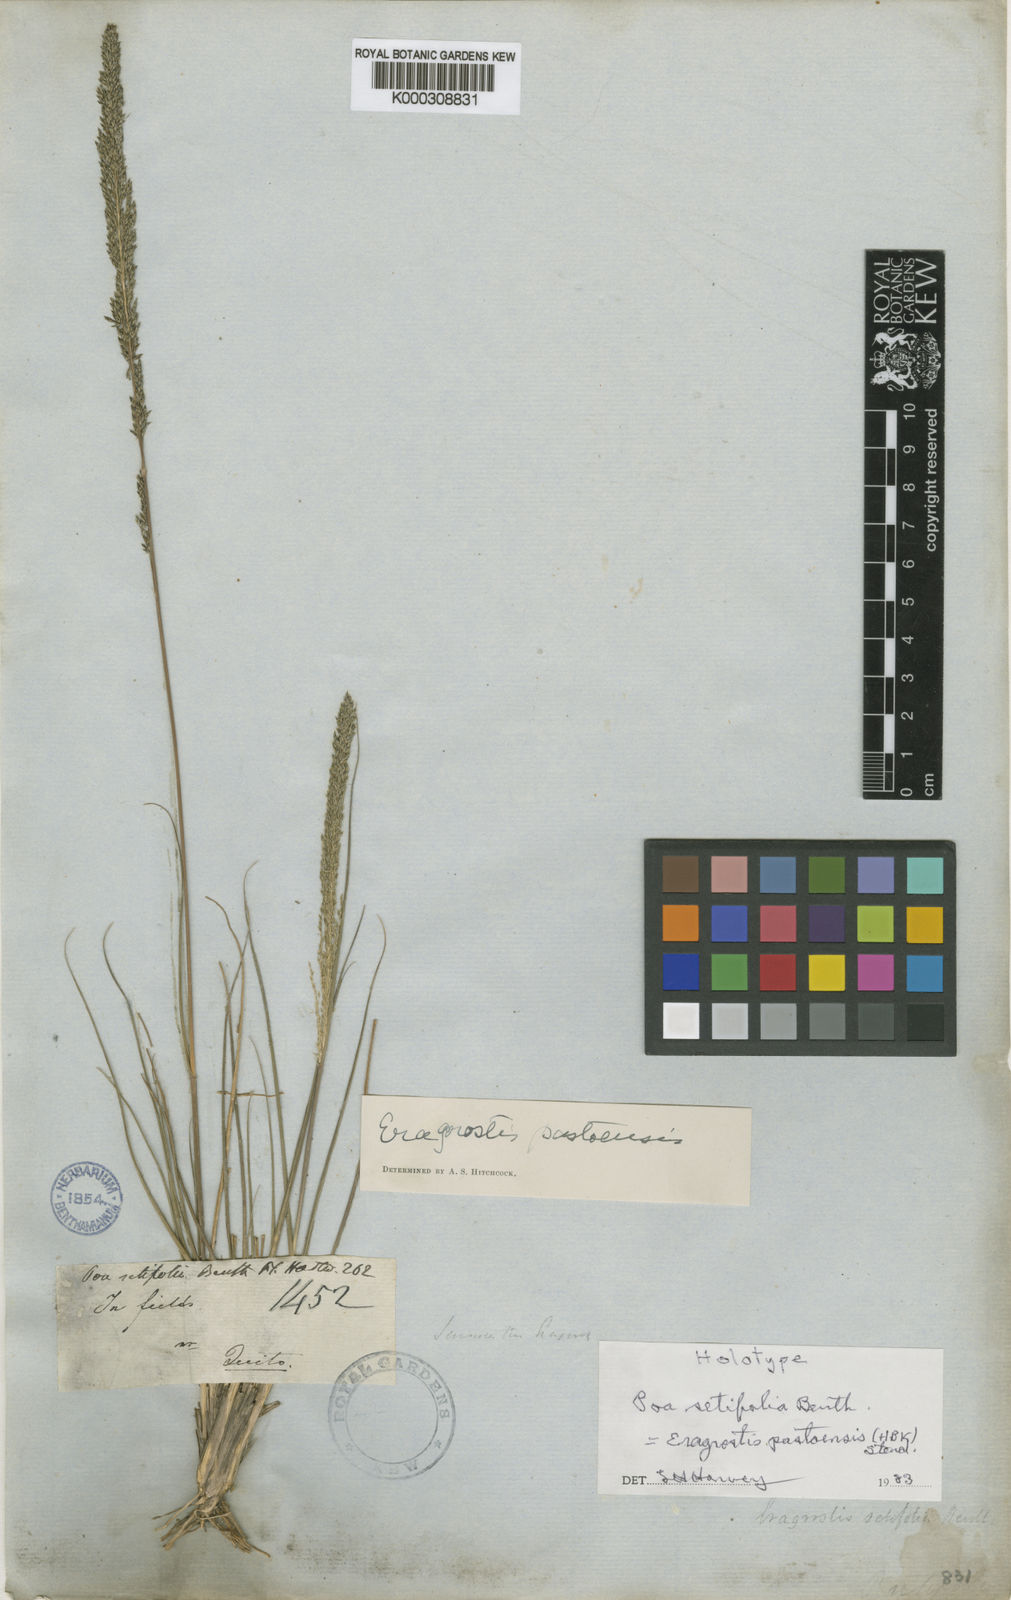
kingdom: Plantae
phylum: Tracheophyta
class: Liliopsida
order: Poales
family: Poaceae
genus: Eragrostis
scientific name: Eragrostis pastoensis
